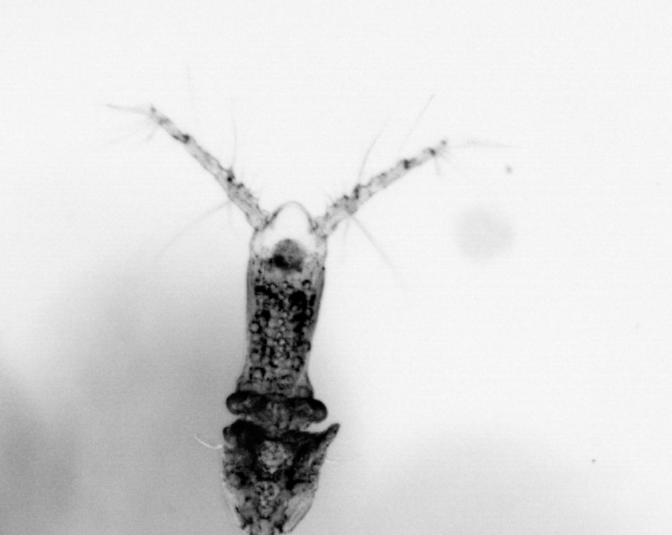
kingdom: Animalia
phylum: Arthropoda
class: Copepoda
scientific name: Copepoda
